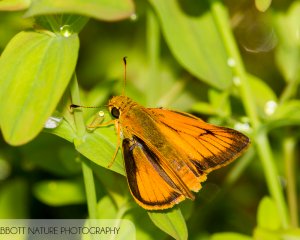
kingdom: Animalia
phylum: Arthropoda
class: Insecta
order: Lepidoptera
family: Hesperiidae
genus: Atrytone
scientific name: Atrytone delaware
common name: Delaware Skipper
